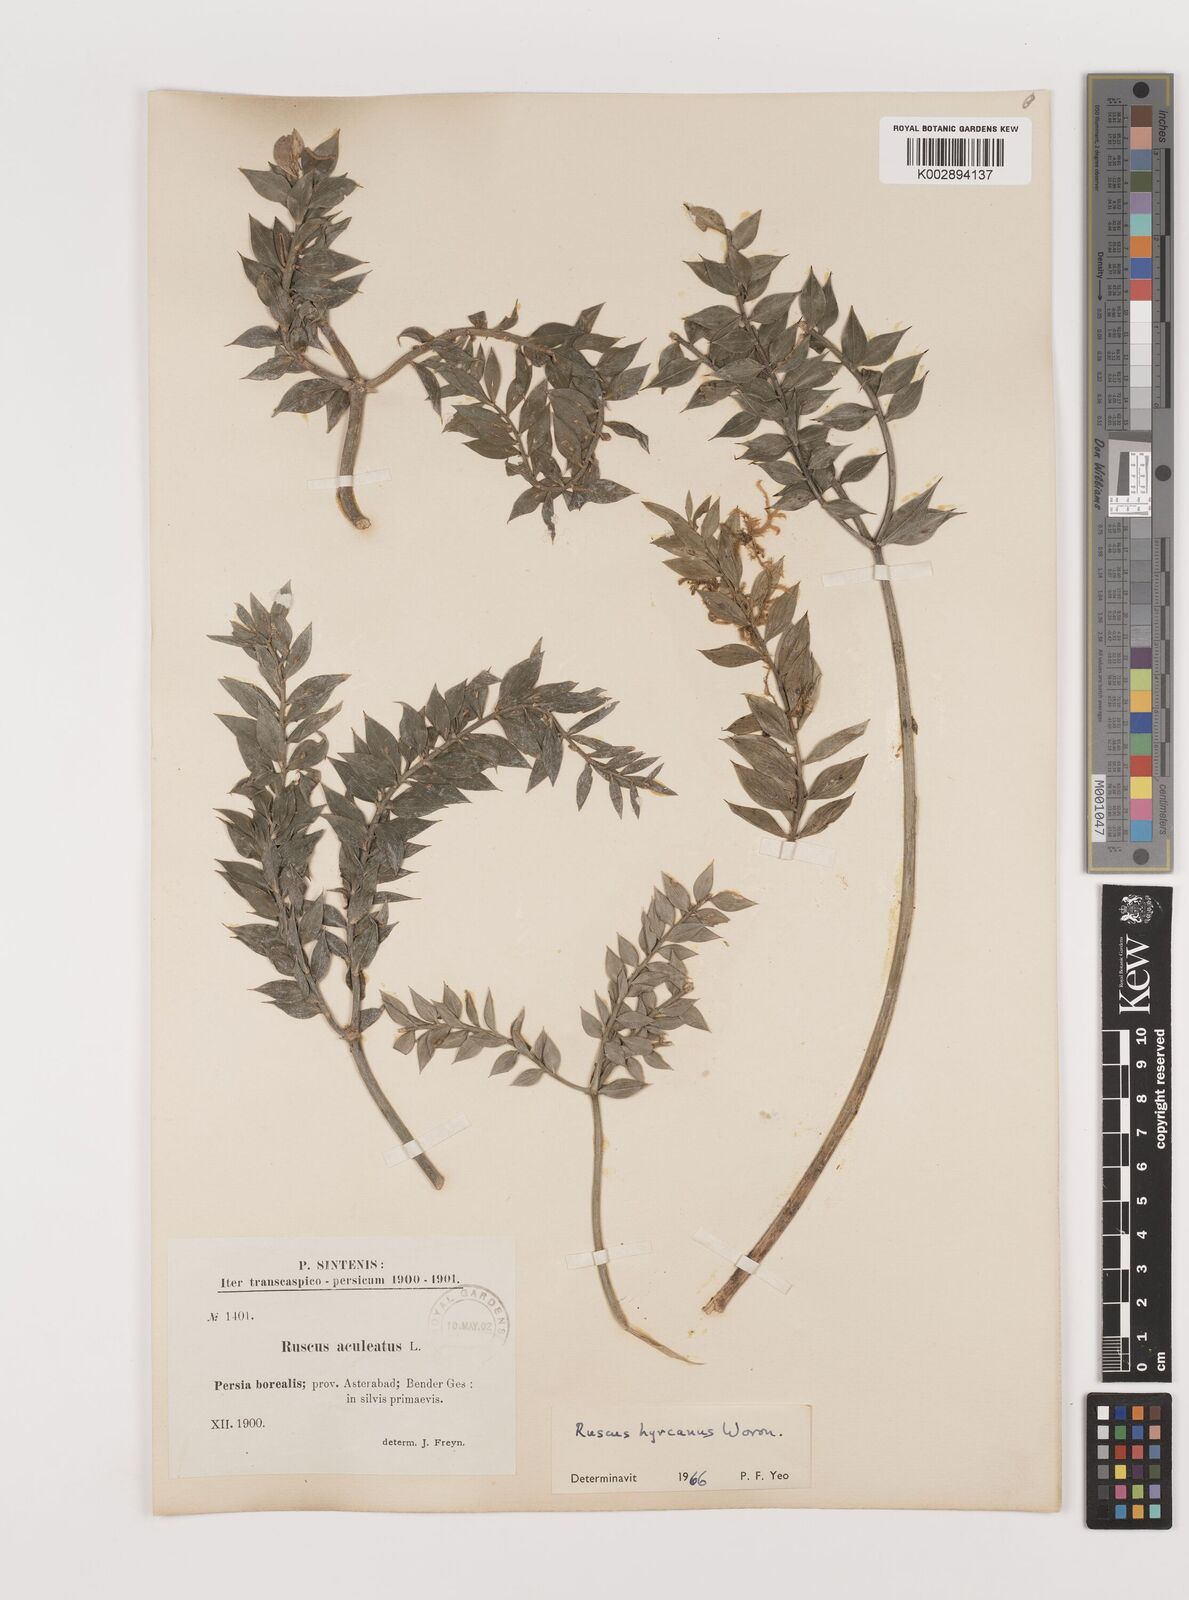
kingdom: Plantae
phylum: Tracheophyta
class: Liliopsida
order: Asparagales
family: Asparagaceae
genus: Ruscus
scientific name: Ruscus hyrcanus
